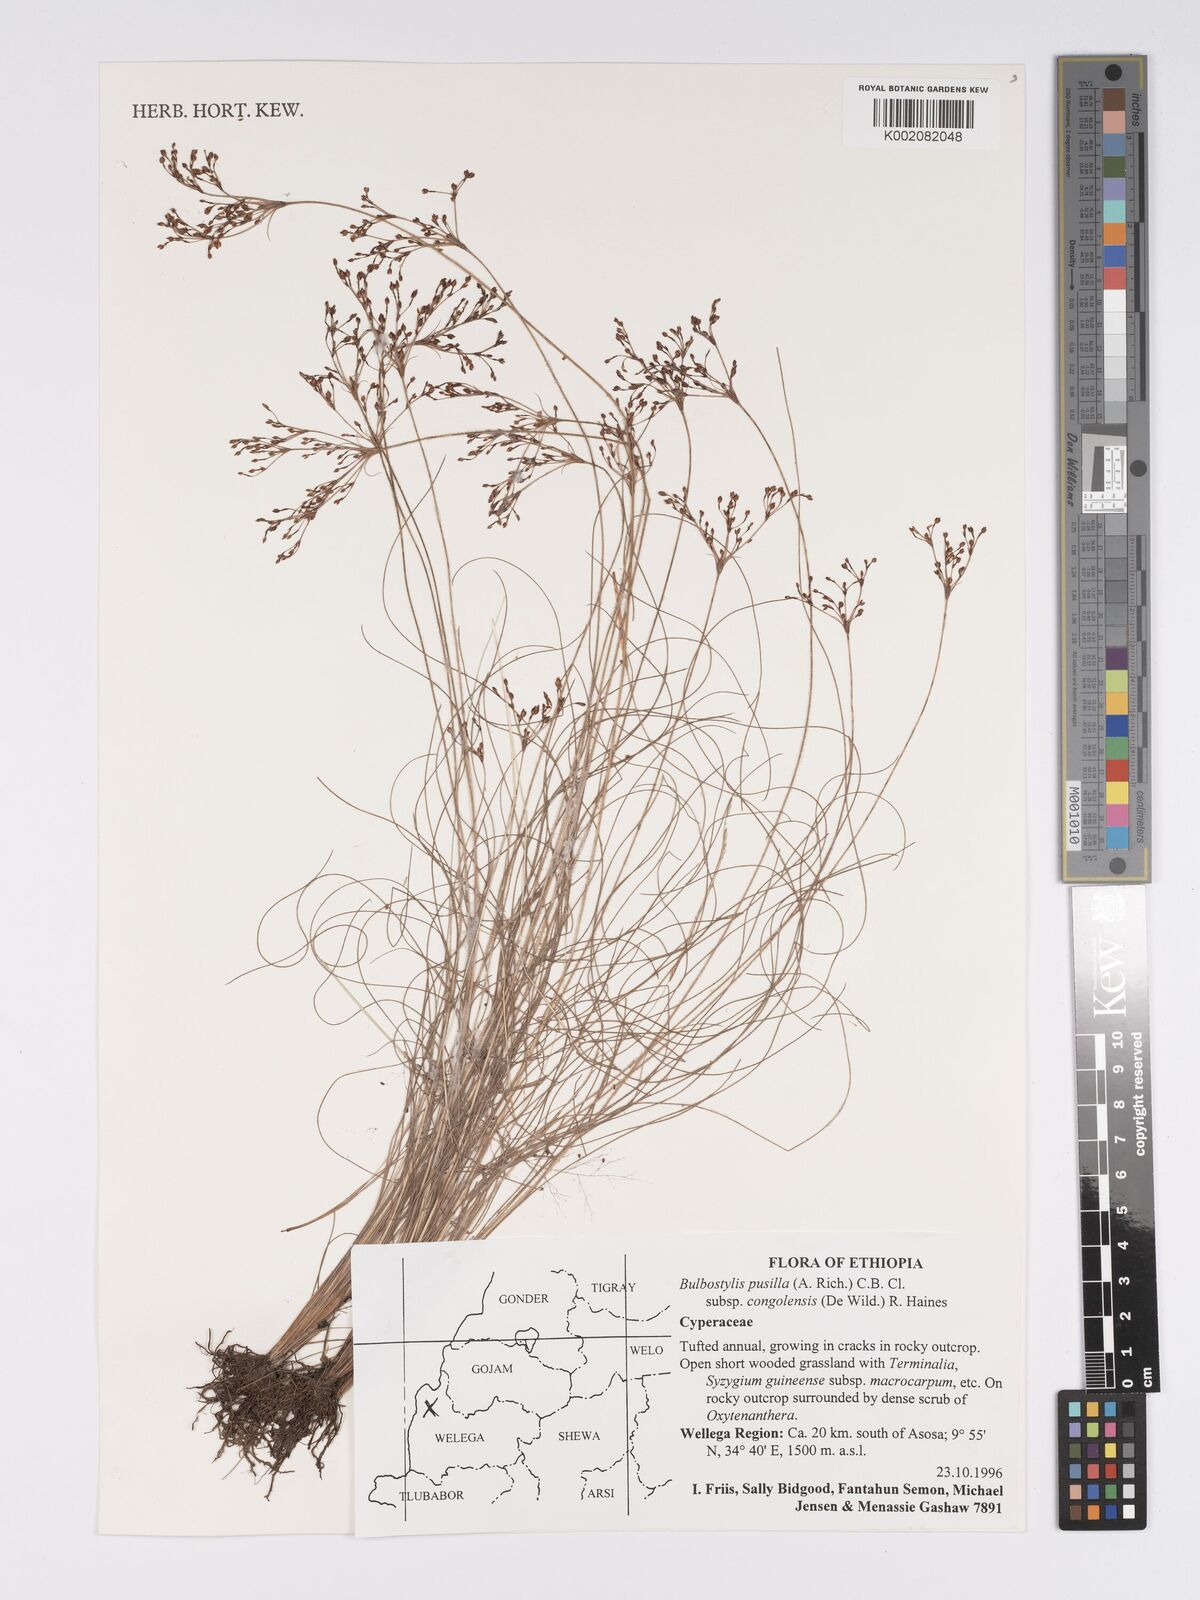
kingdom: Plantae
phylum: Tracheophyta
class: Liliopsida
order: Poales
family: Cyperaceae
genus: Bulbostylis
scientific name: Bulbostylis congolensis
